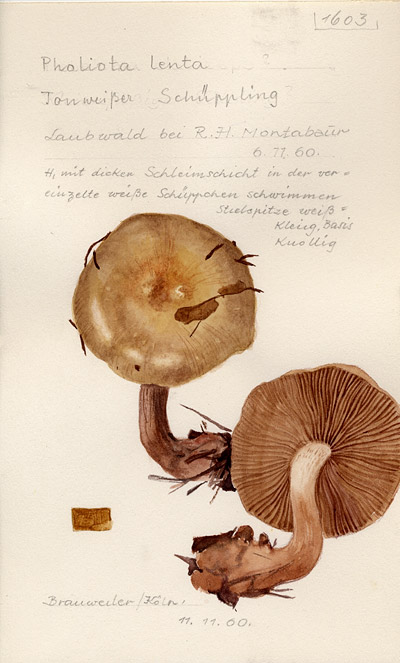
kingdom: Fungi
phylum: Basidiomycota
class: Agaricomycetes
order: Agaricales
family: Strophariaceae
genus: Pholiota
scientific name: Pholiota lenta
